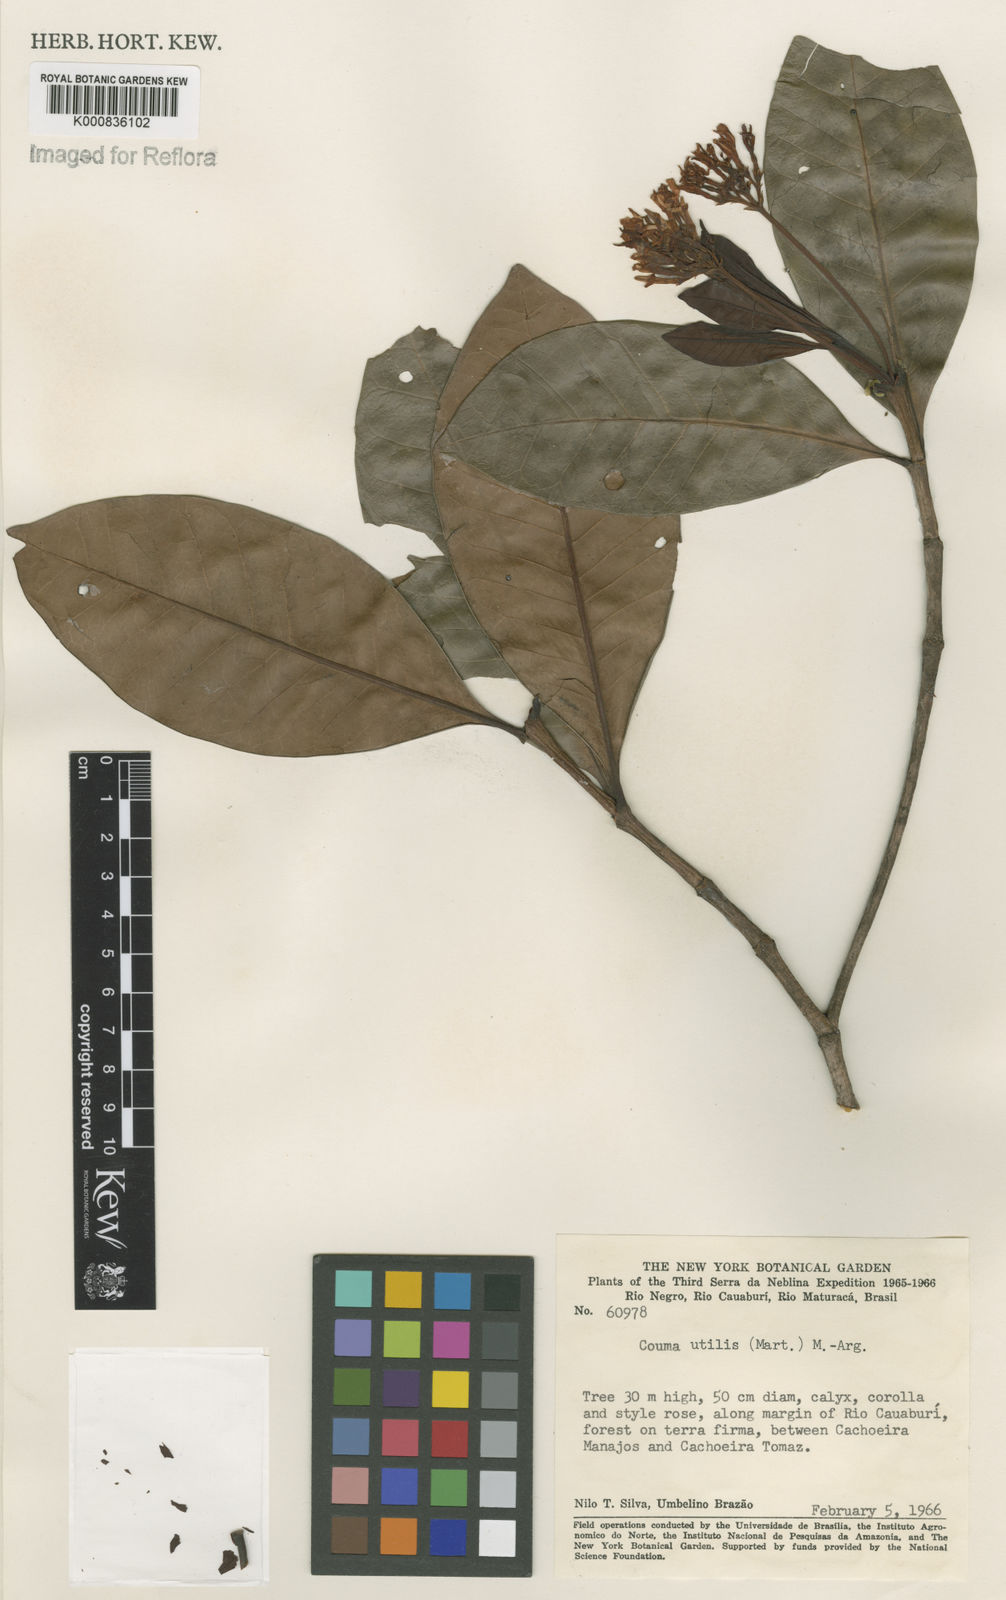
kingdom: Plantae
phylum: Tracheophyta
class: Magnoliopsida
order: Gentianales
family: Apocynaceae
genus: Couma
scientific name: Couma
